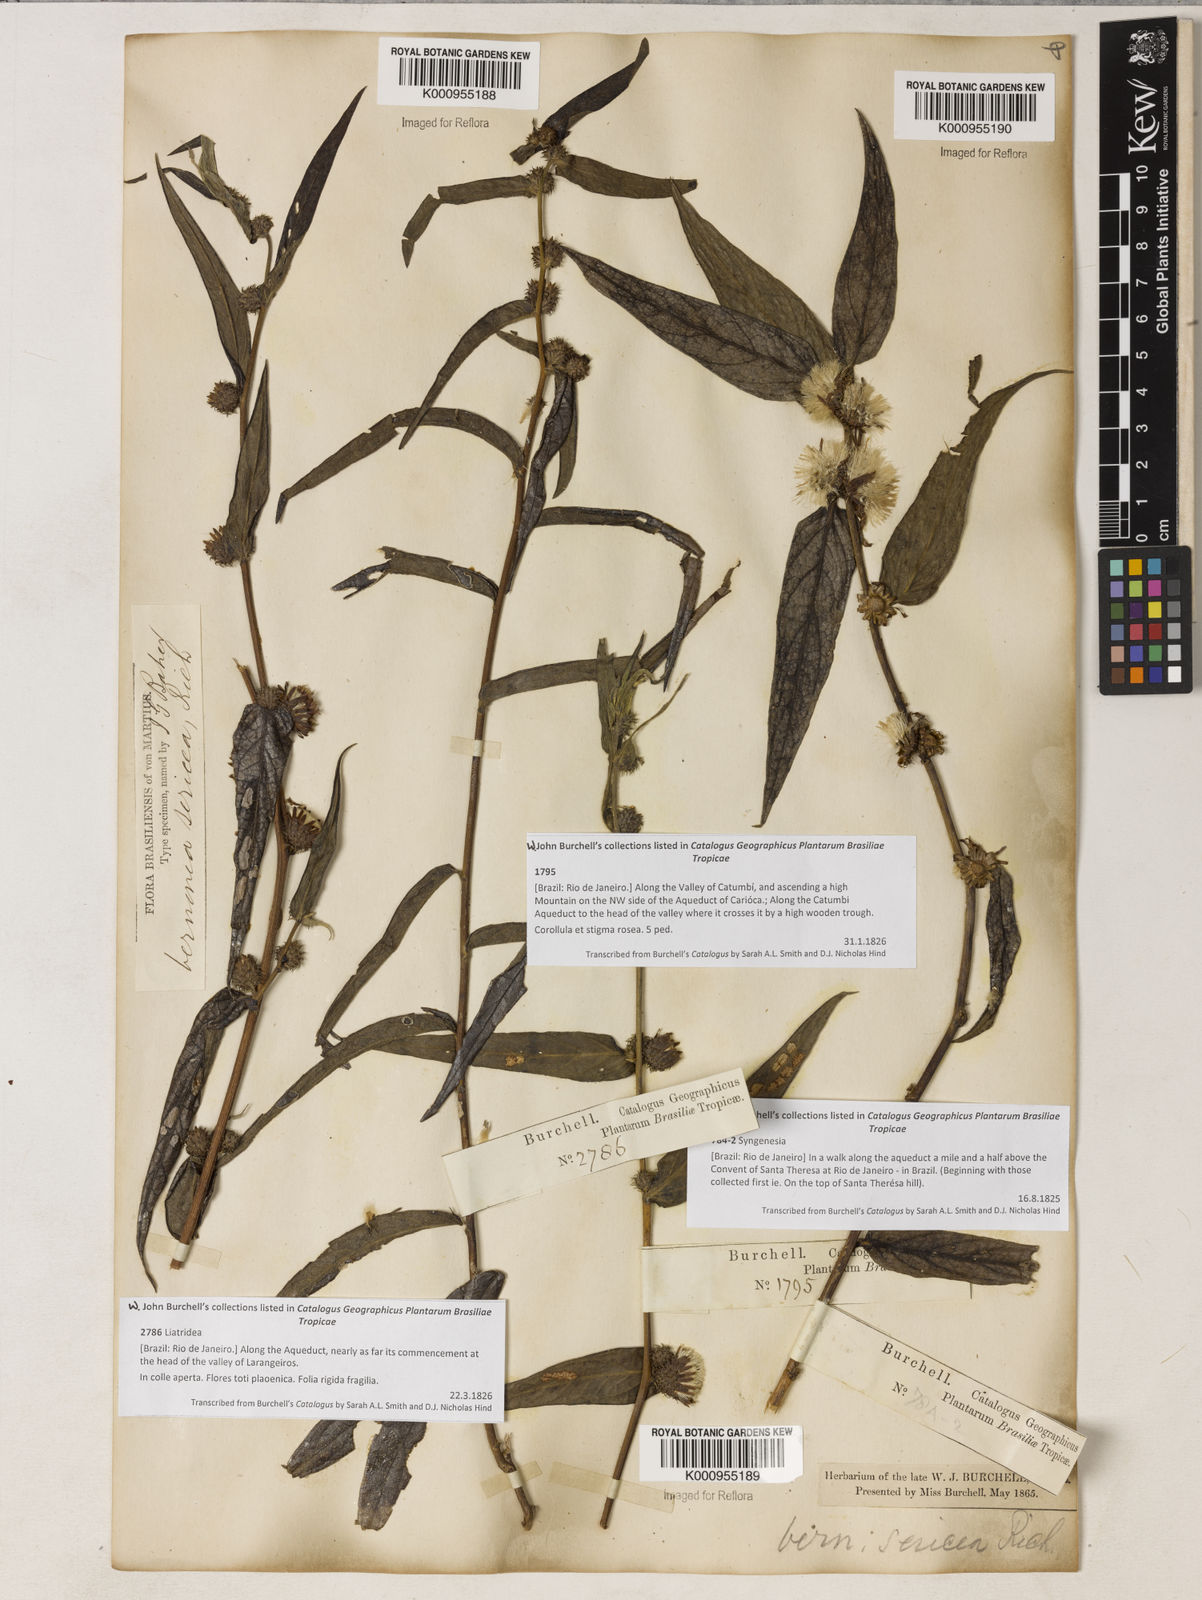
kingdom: Plantae
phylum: Tracheophyta
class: Magnoliopsida
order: Asterales
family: Asteraceae
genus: Lepidaploa
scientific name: Lepidaploa sericea
